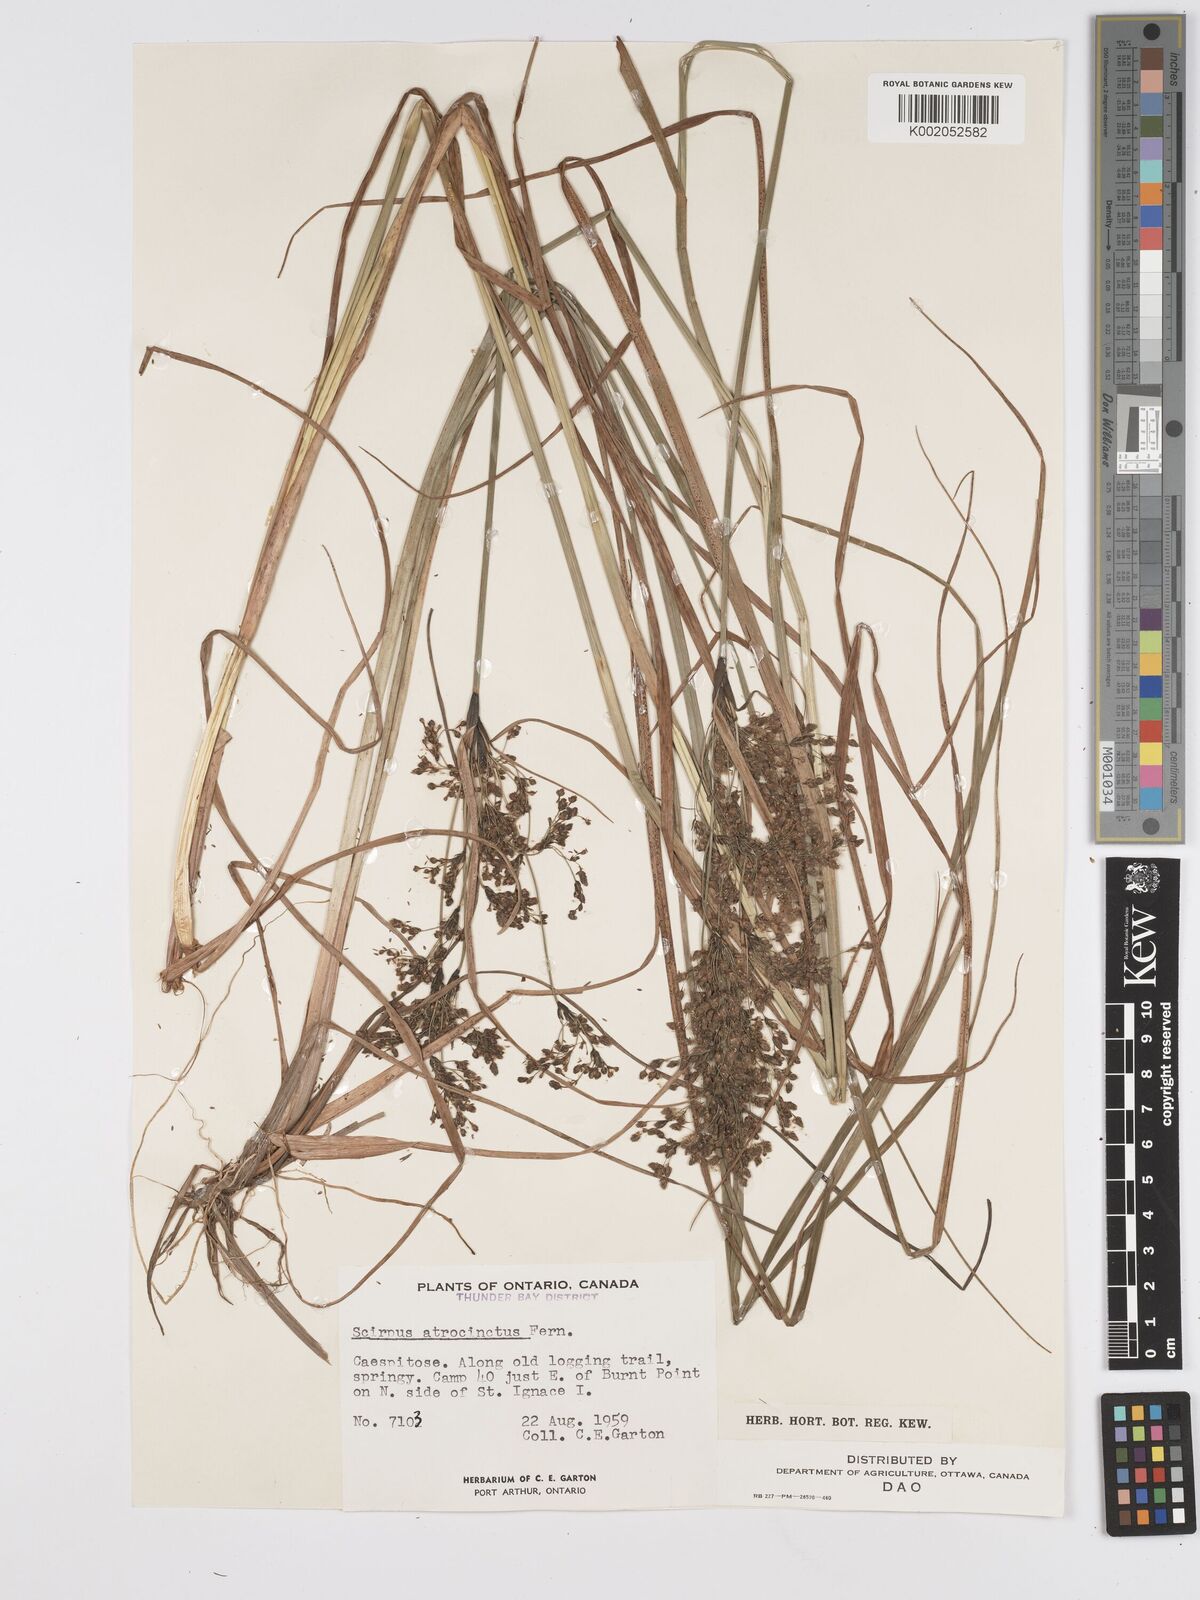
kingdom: Plantae
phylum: Tracheophyta
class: Liliopsida
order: Poales
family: Cyperaceae
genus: Scirpus
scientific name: Scirpus atrocinctus
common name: Black-girdled bulrush
